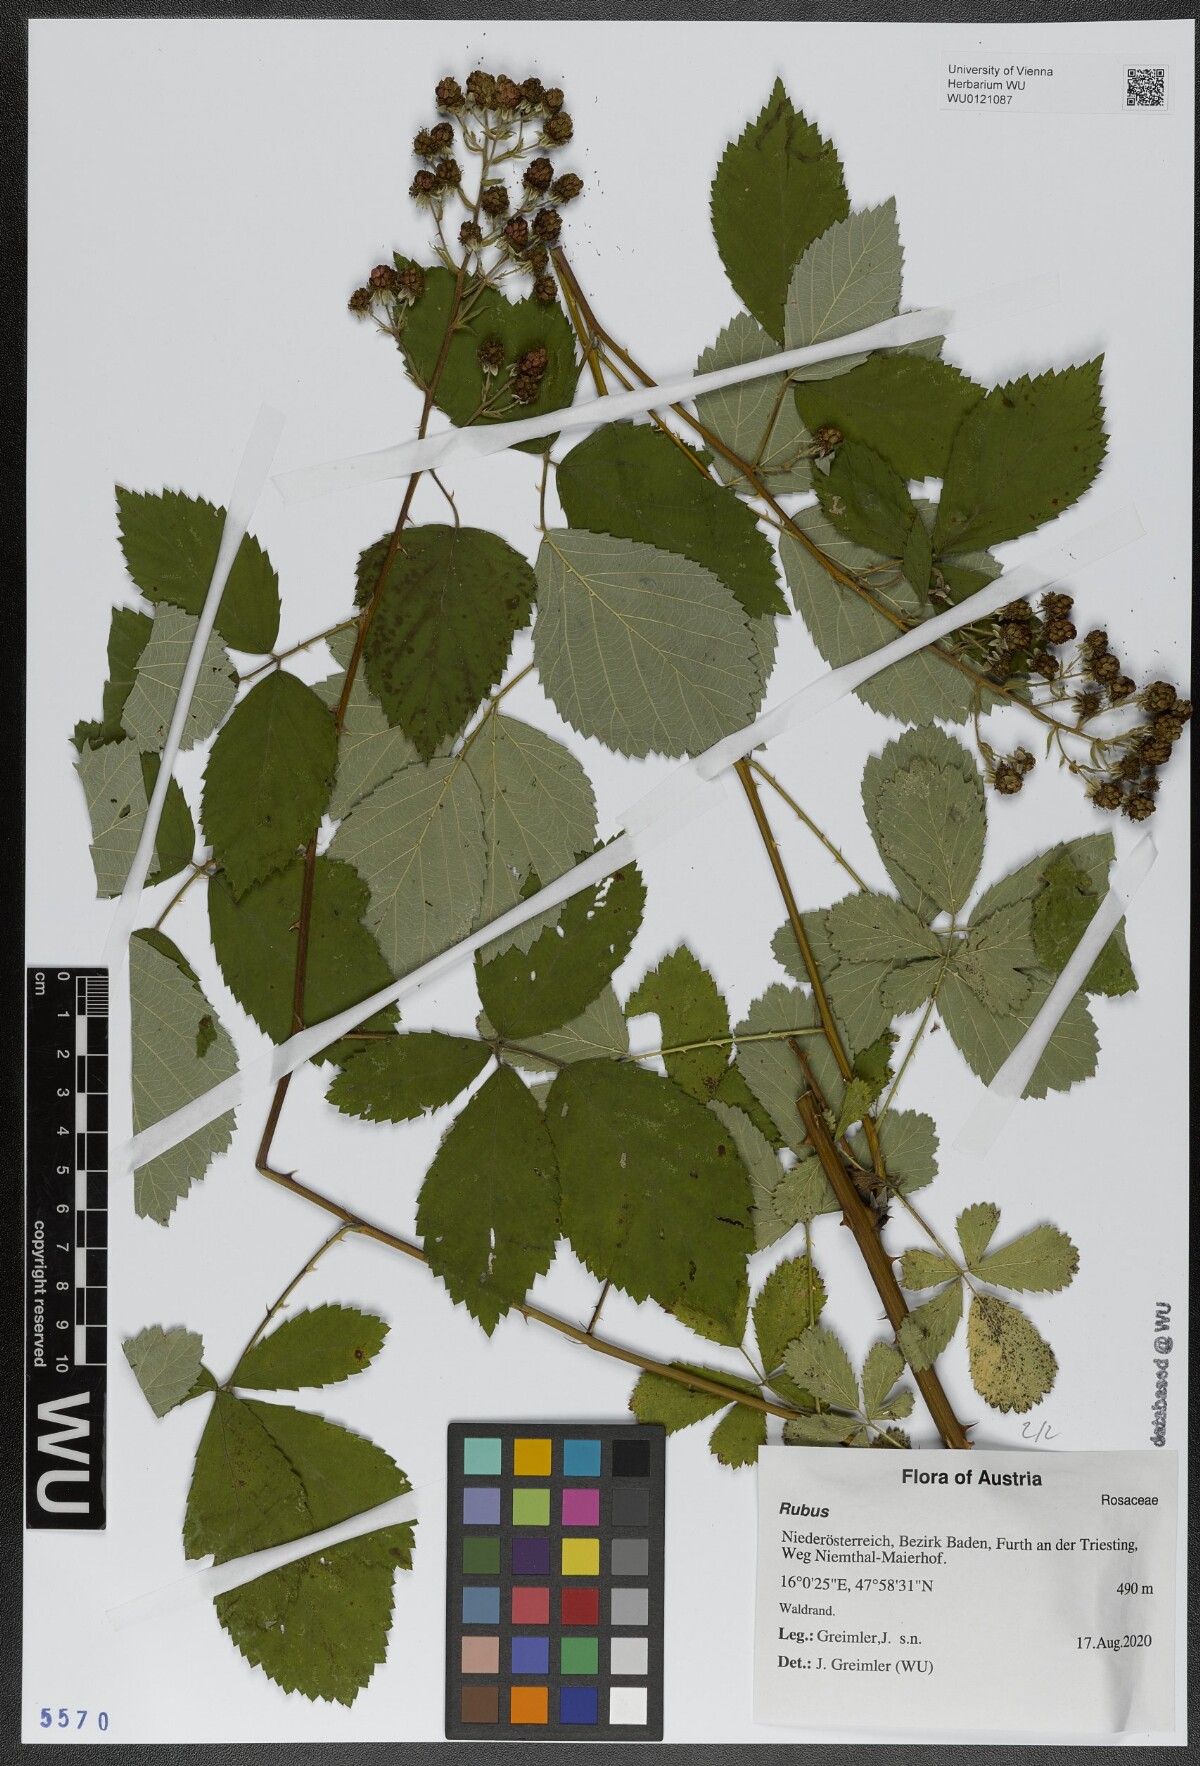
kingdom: Plantae
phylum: Tracheophyta
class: Magnoliopsida
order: Rosales
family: Rosaceae
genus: Rubus
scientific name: Rubus
